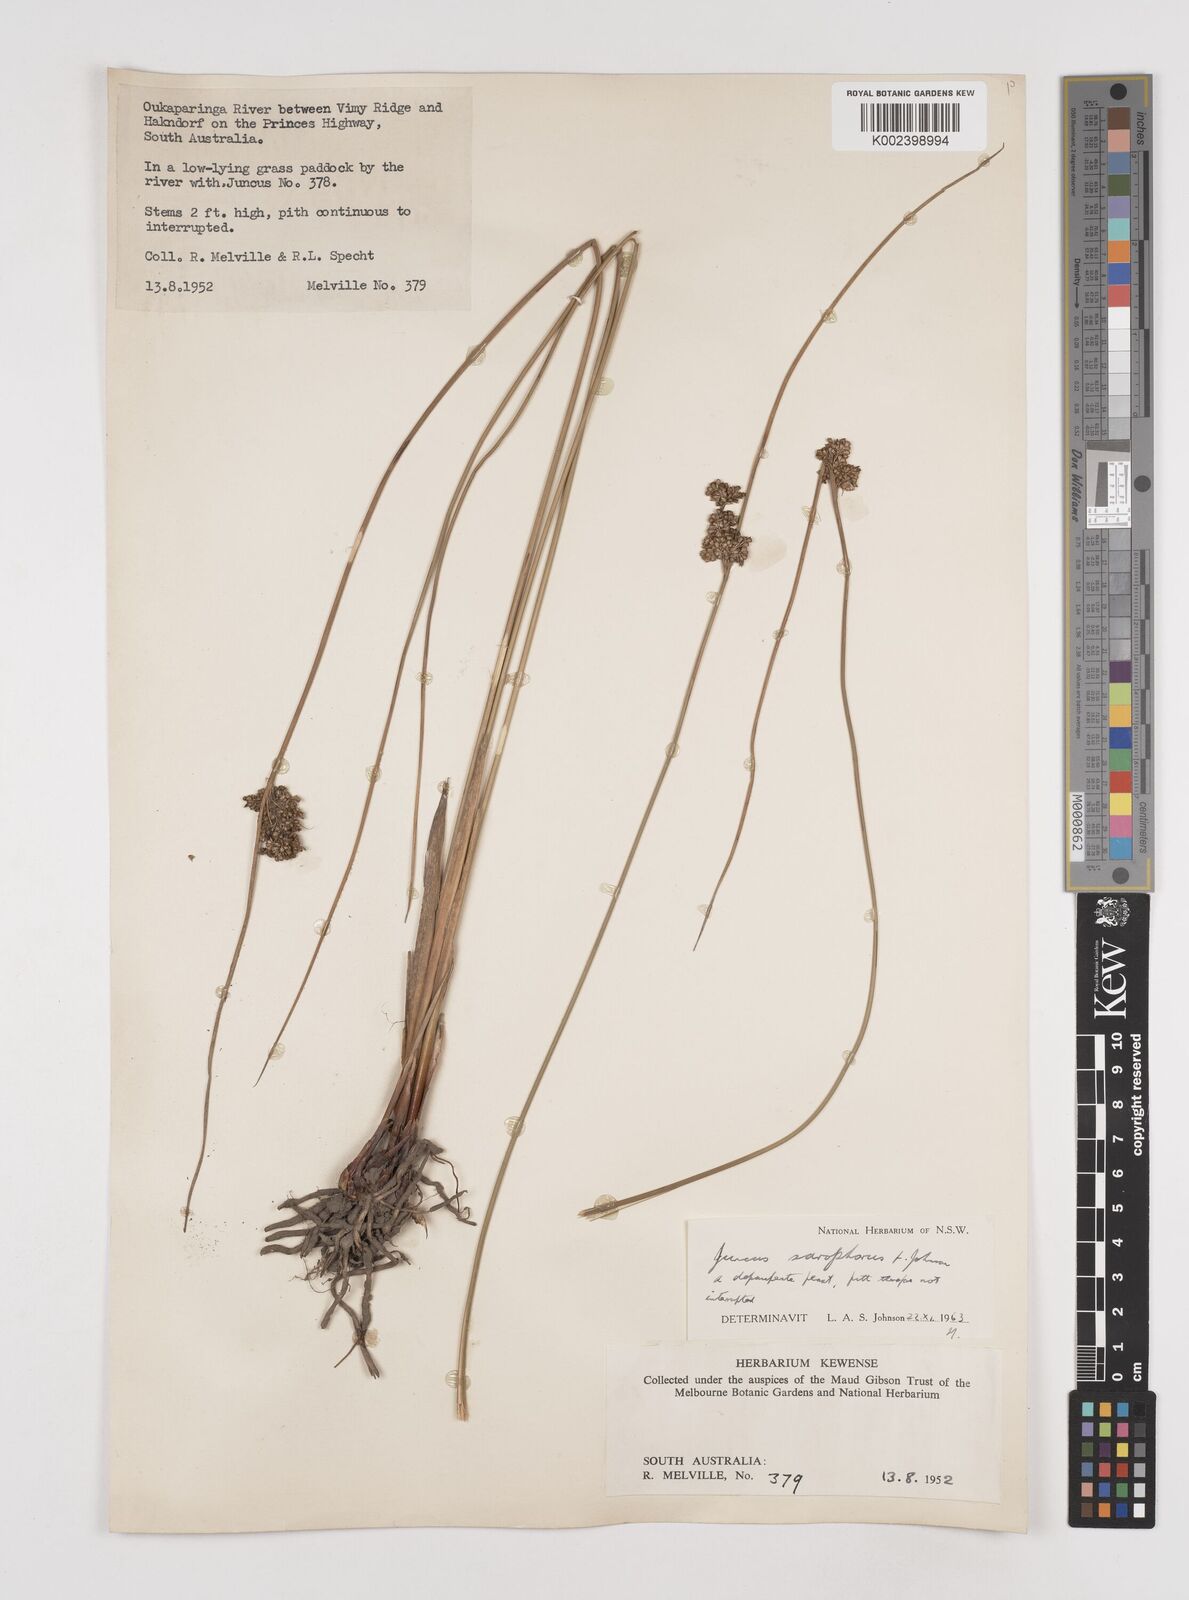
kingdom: Plantae
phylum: Tracheophyta
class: Liliopsida
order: Poales
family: Juncaceae
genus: Juncus
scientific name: Juncus sarophorus
